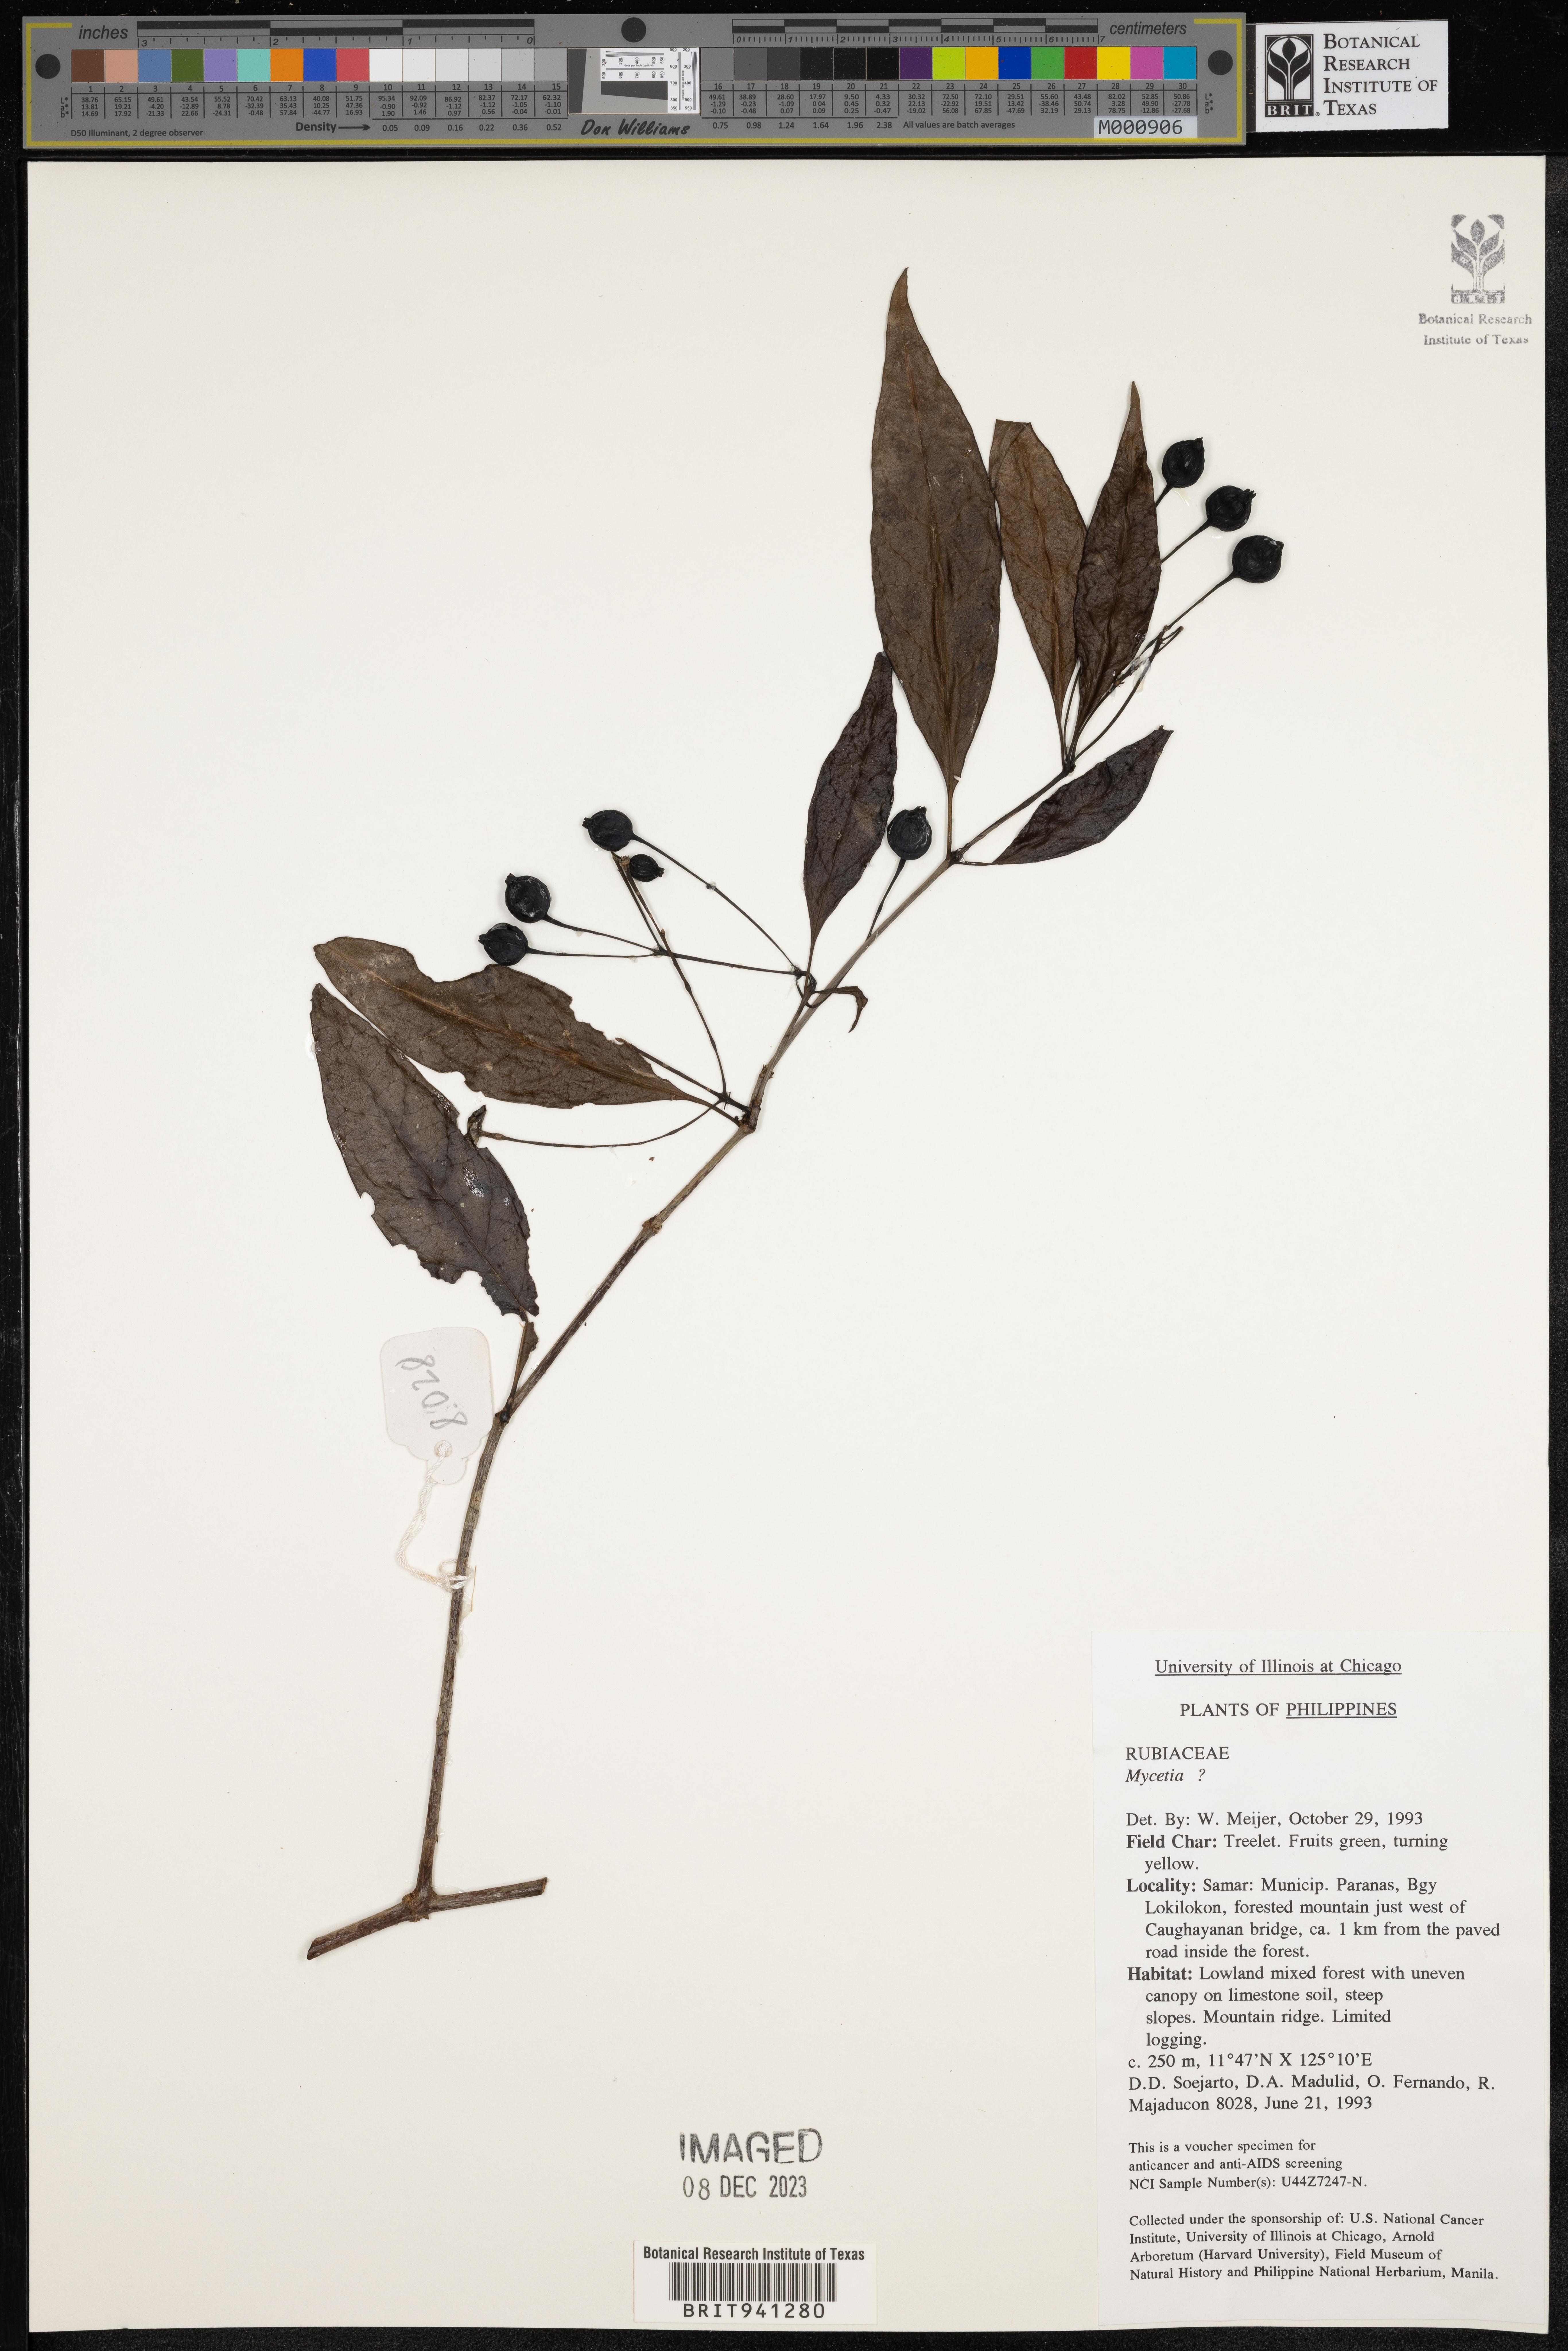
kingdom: Plantae
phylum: Tracheophyta
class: Magnoliopsida
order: Gentianales
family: Rubiaceae
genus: Mycetia
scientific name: Mycetia
